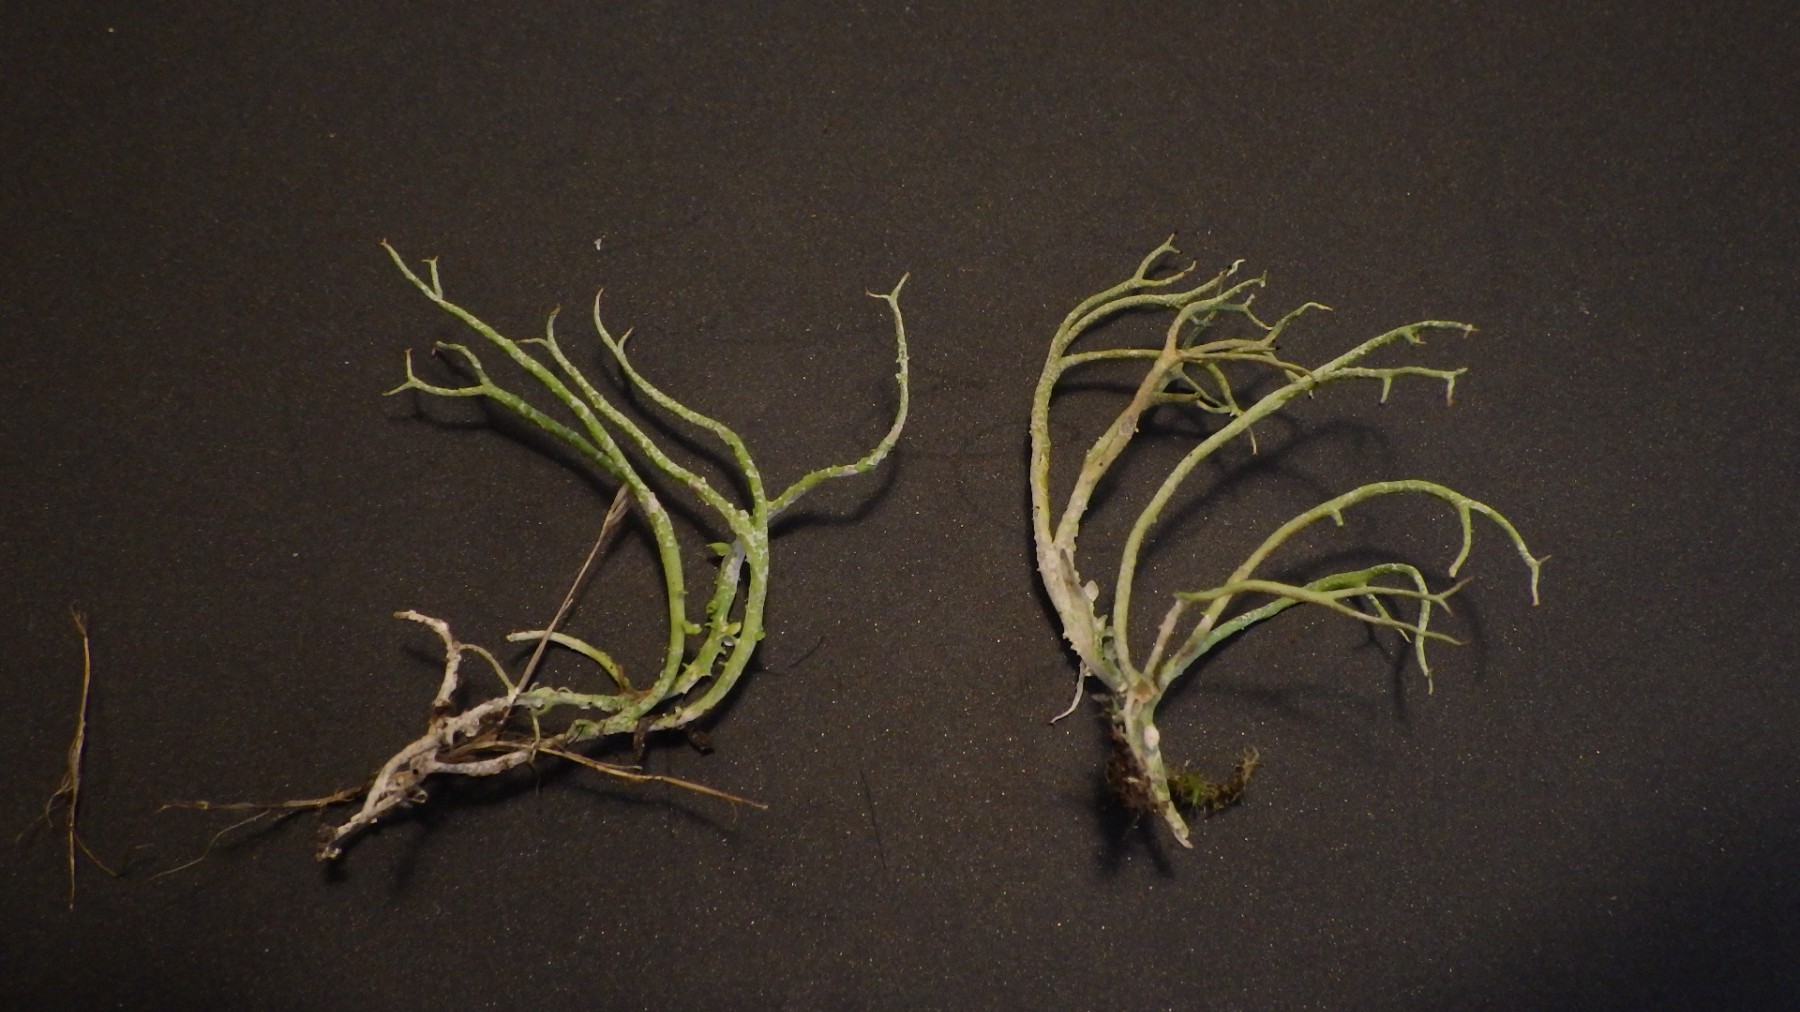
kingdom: Fungi
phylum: Ascomycota
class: Lecanoromycetes
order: Lecanorales
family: Cladoniaceae
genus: Cladonia
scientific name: Cladonia furcata
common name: kløftet bægerlav
